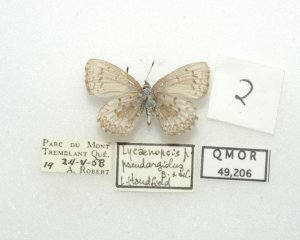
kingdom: Animalia
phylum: Arthropoda
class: Insecta
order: Lepidoptera
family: Lycaenidae
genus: Celastrina
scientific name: Celastrina lucia
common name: Northern Spring Azure
